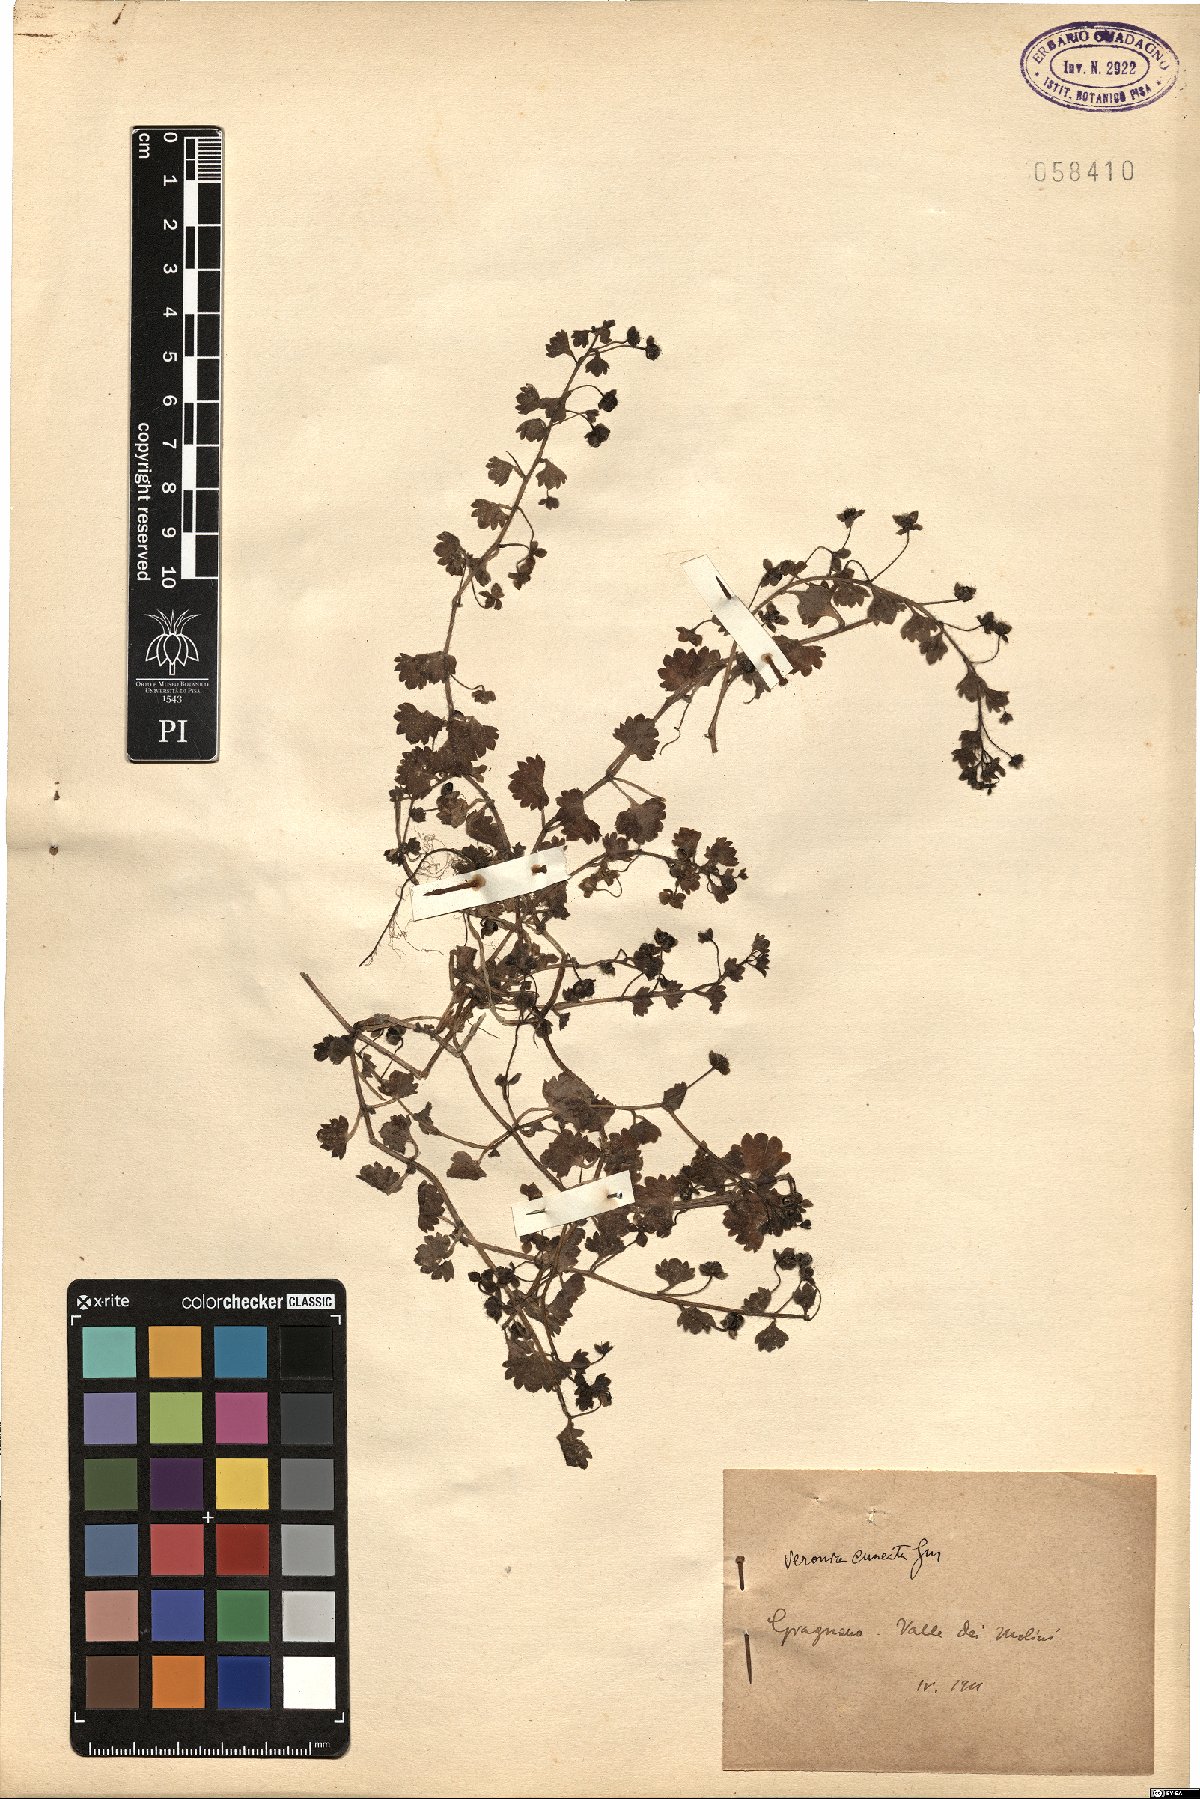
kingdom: Plantae
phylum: Tracheophyta
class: Magnoliopsida
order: Lamiales
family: Plantaginaceae
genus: Veronica
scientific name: Veronica cymbalaria
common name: Pale speedwell
